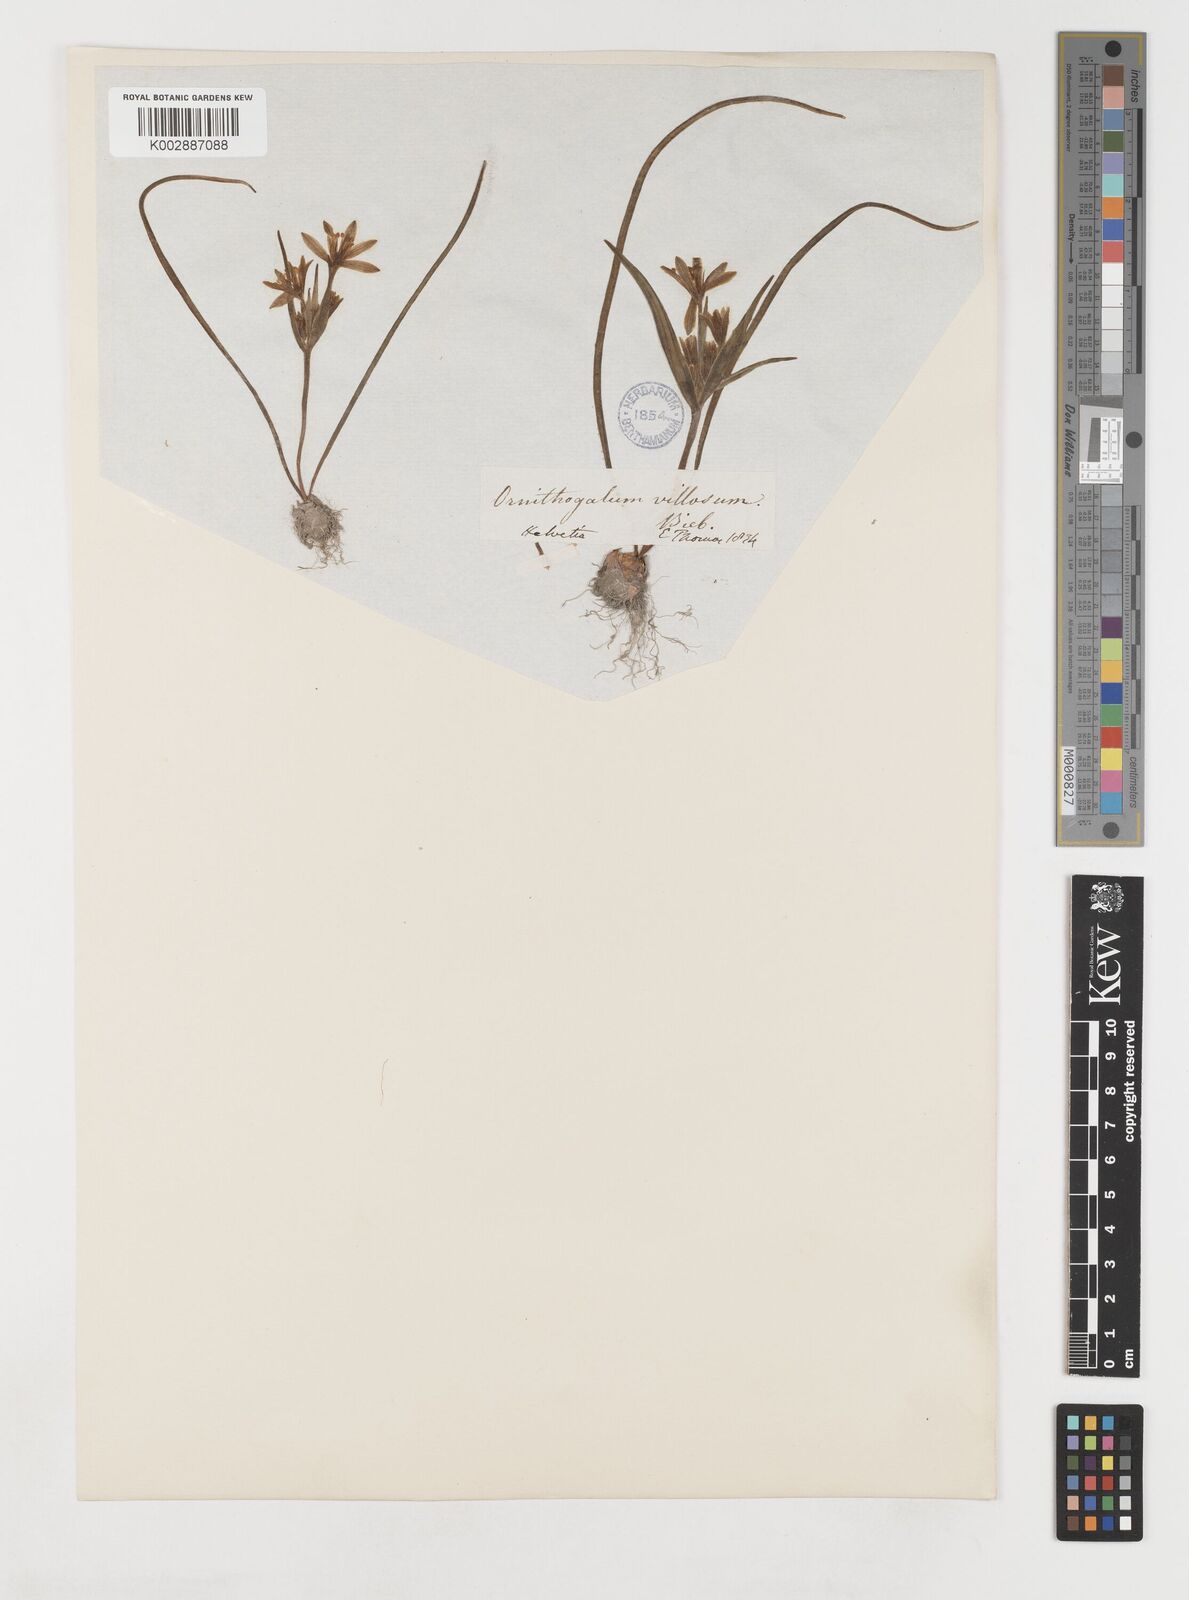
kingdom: Plantae
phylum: Tracheophyta
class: Liliopsida
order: Liliales
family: Liliaceae
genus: Gagea
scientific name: Gagea minima
